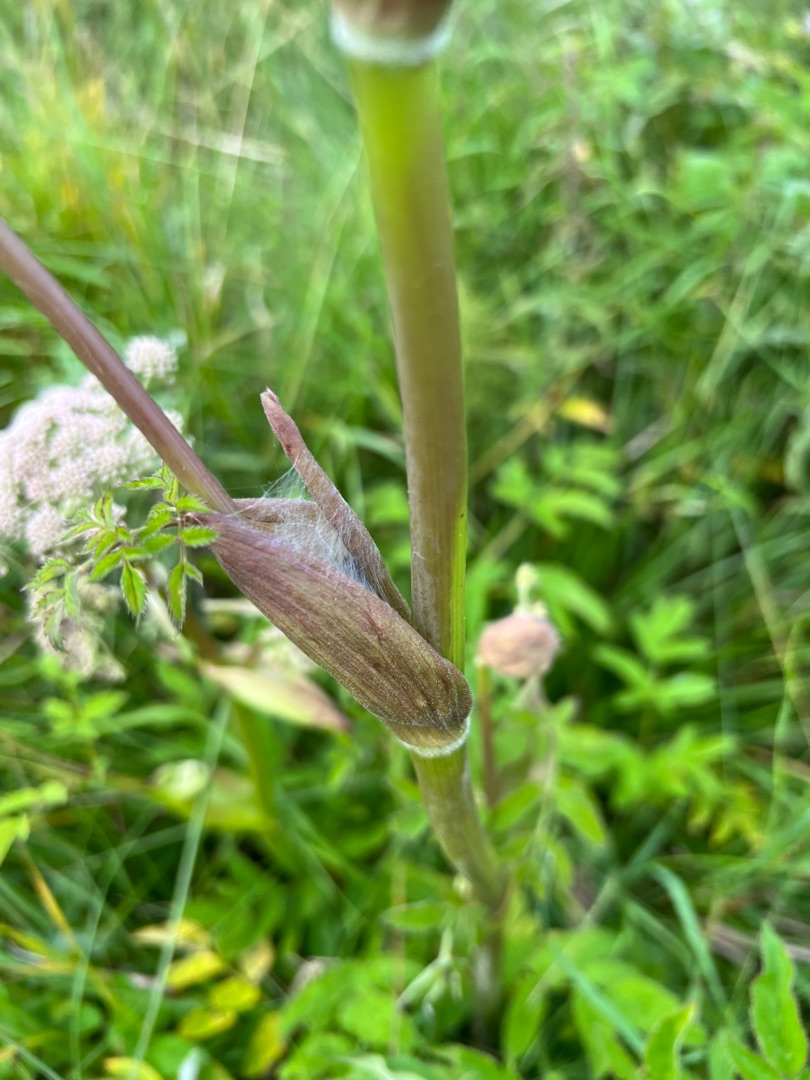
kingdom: Plantae
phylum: Tracheophyta
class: Magnoliopsida
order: Apiales
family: Apiaceae
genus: Angelica
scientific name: Angelica sylvestris
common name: Angelik
